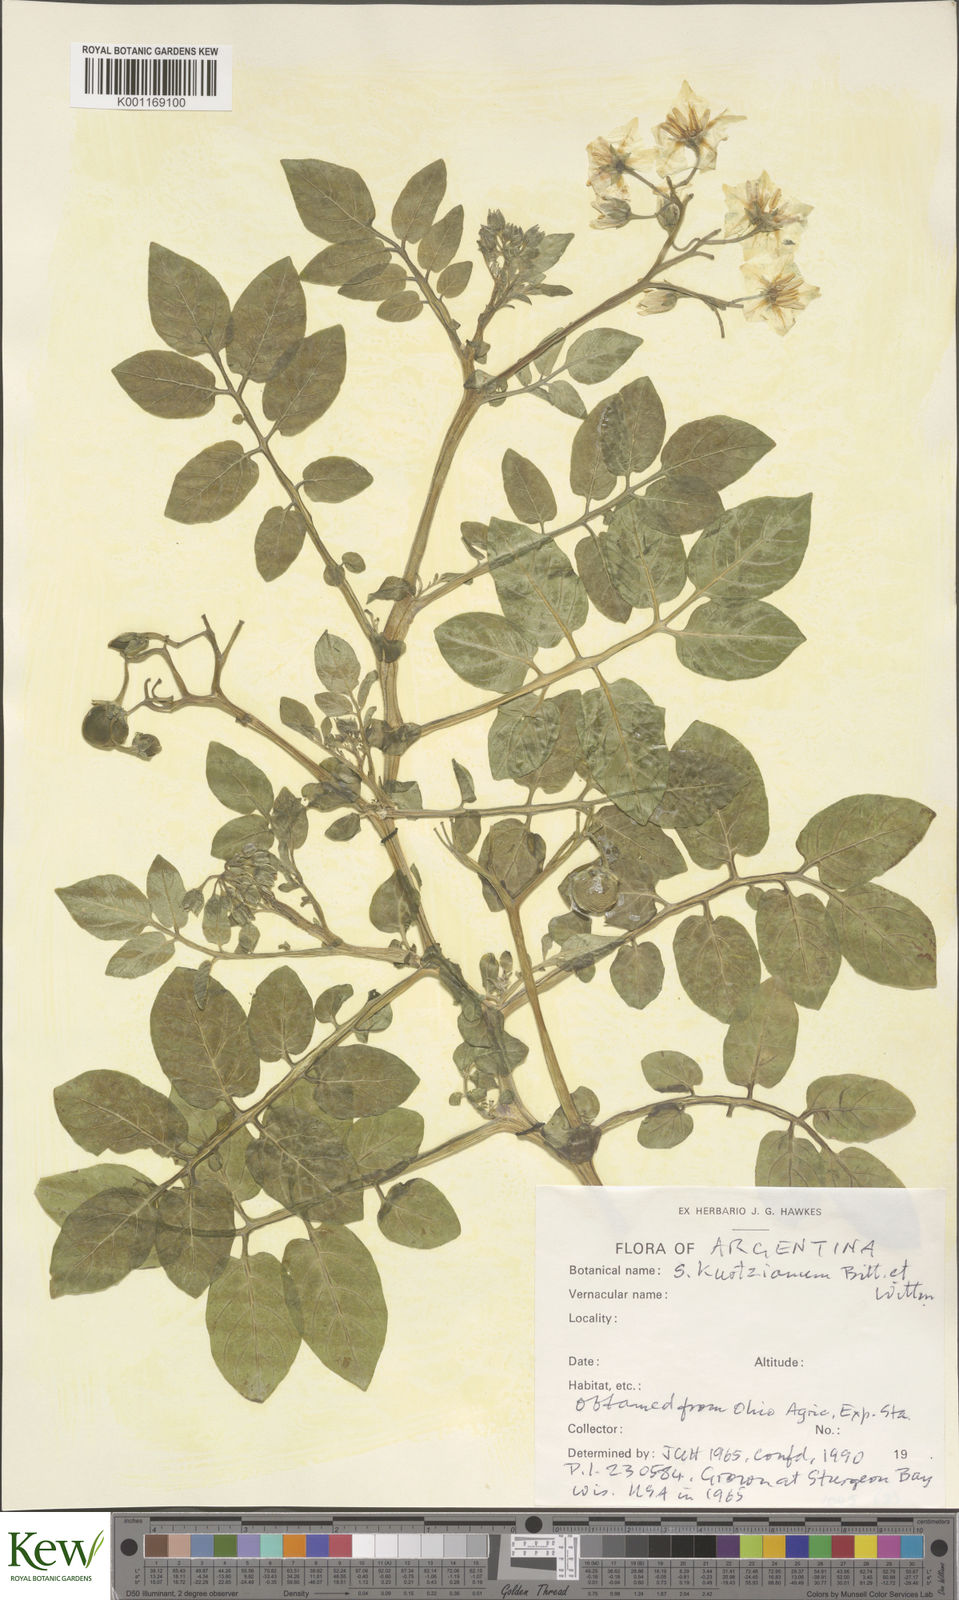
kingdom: Plantae
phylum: Tracheophyta
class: Magnoliopsida
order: Solanales
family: Solanaceae
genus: Solanum
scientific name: Solanum kurtzianum
